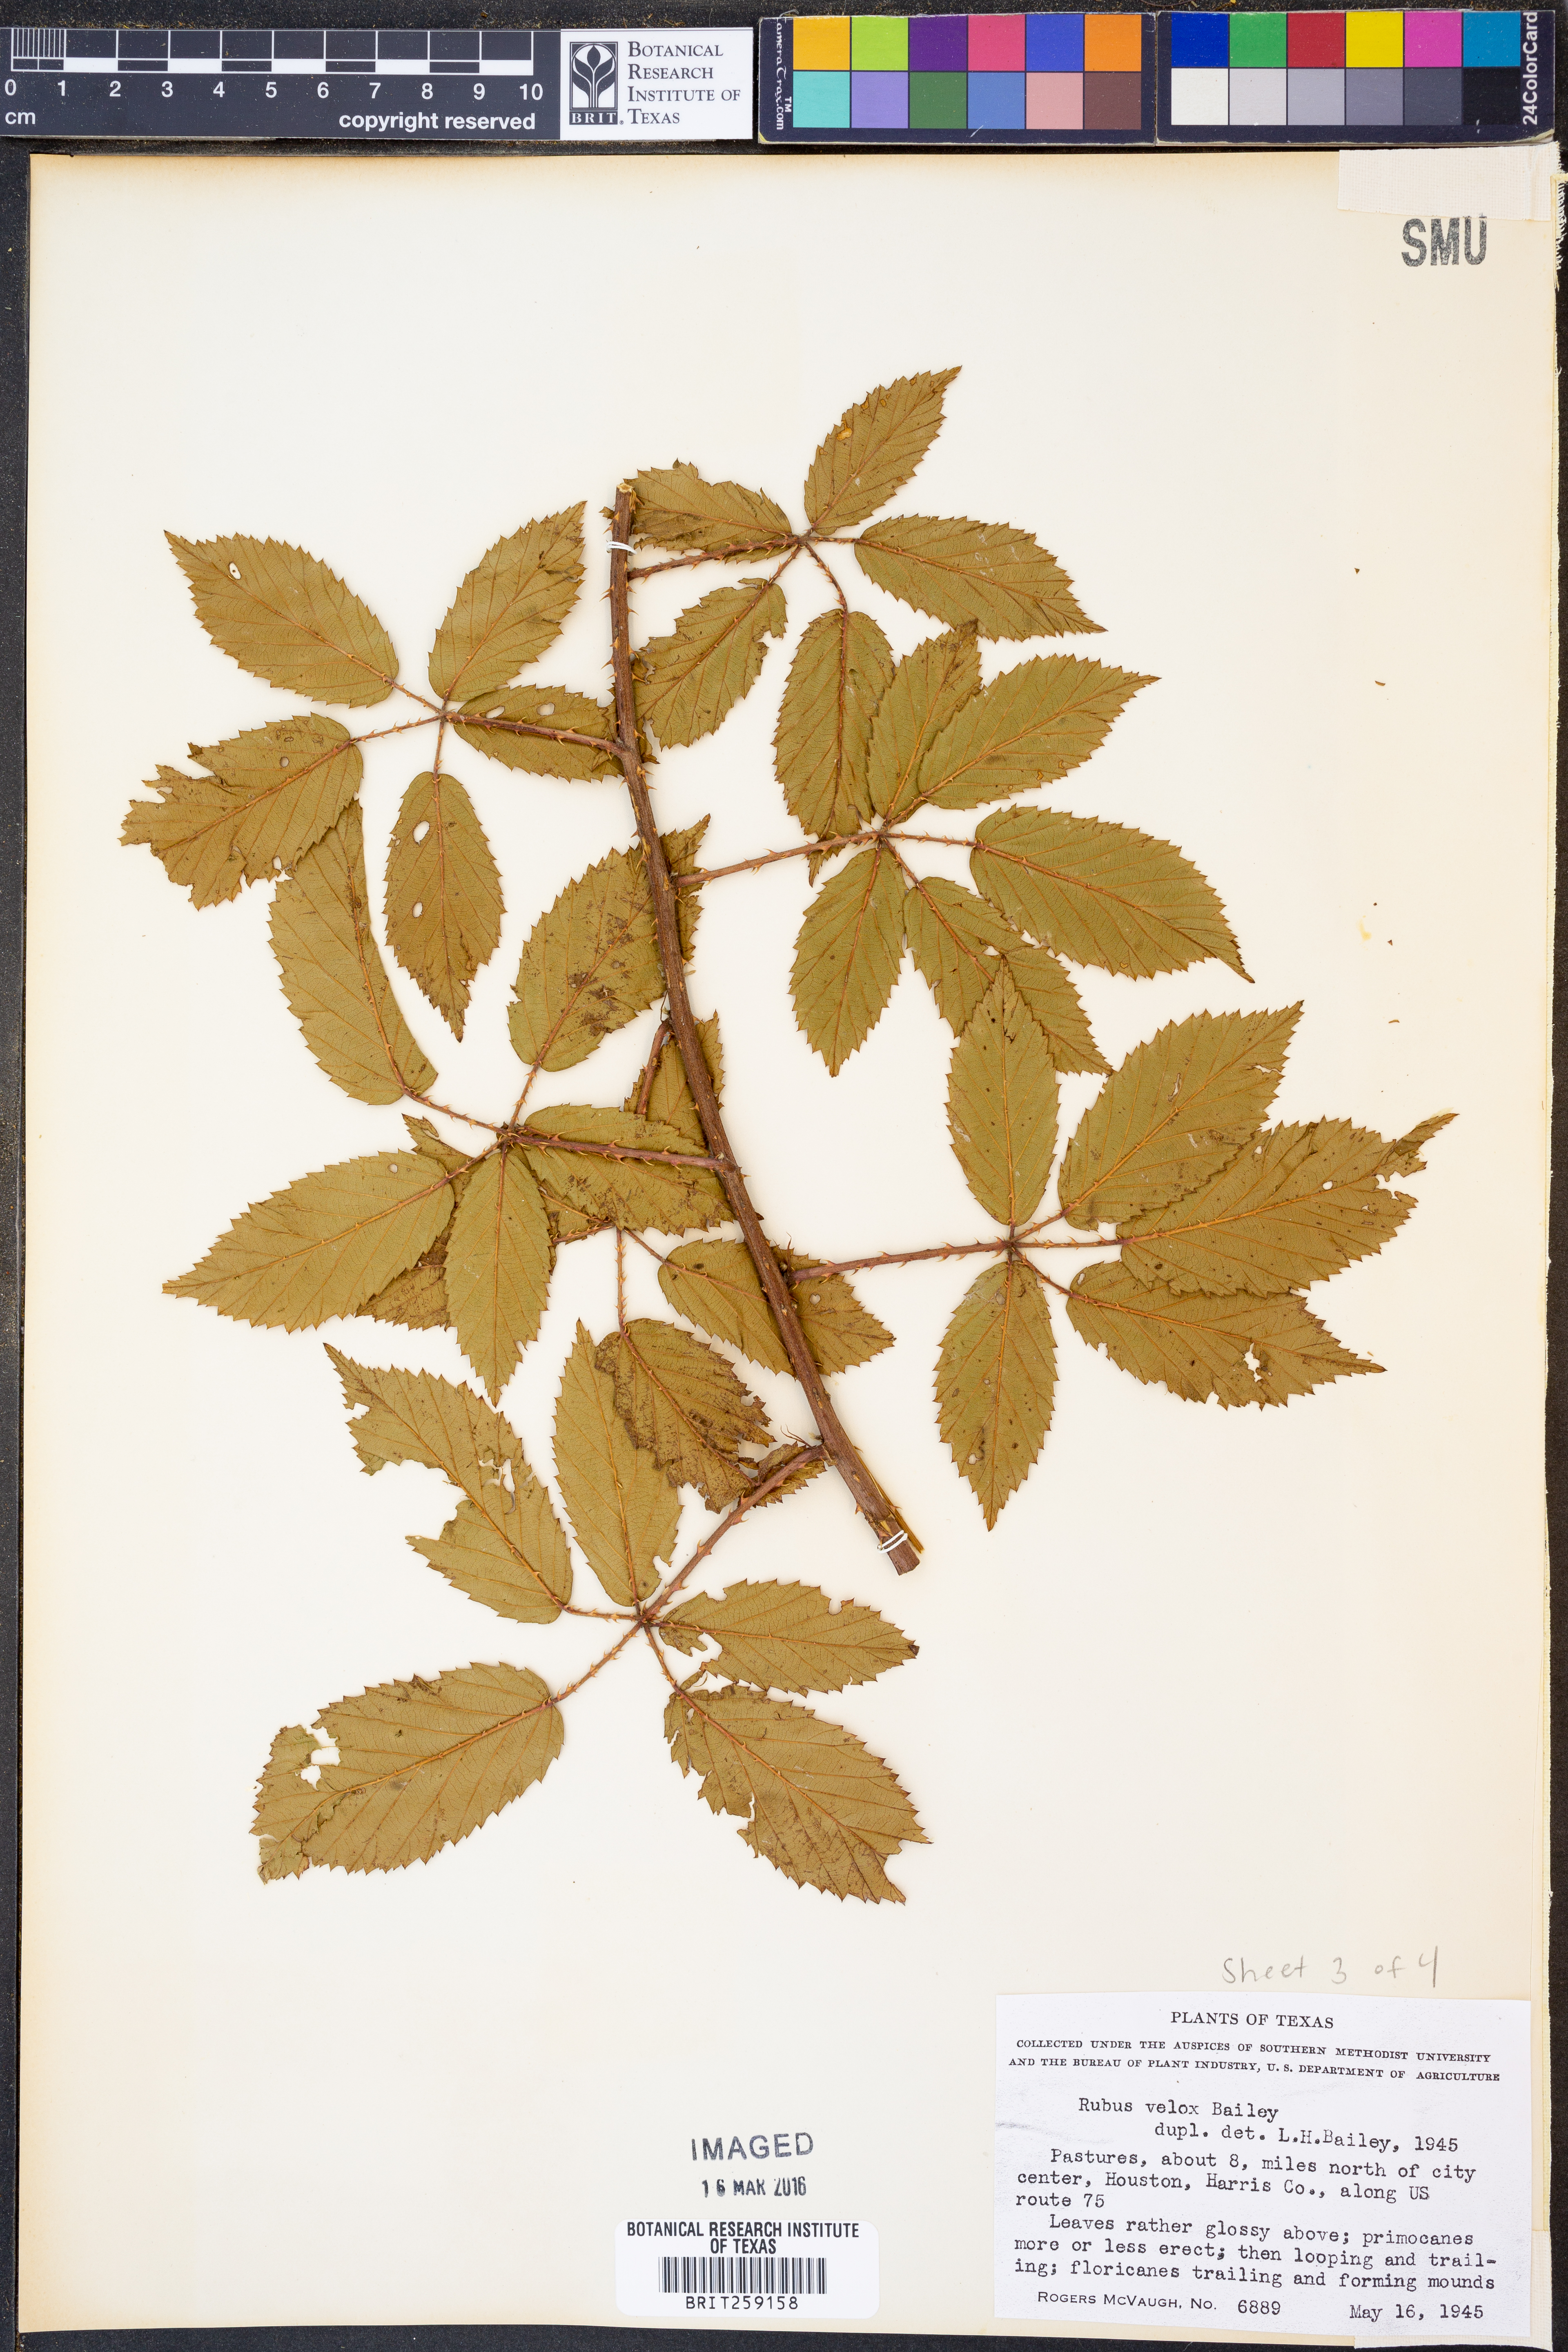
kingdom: Plantae
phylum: Tracheophyta
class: Magnoliopsida
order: Rosales
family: Rosaceae
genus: Rubus
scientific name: Rubus velox
